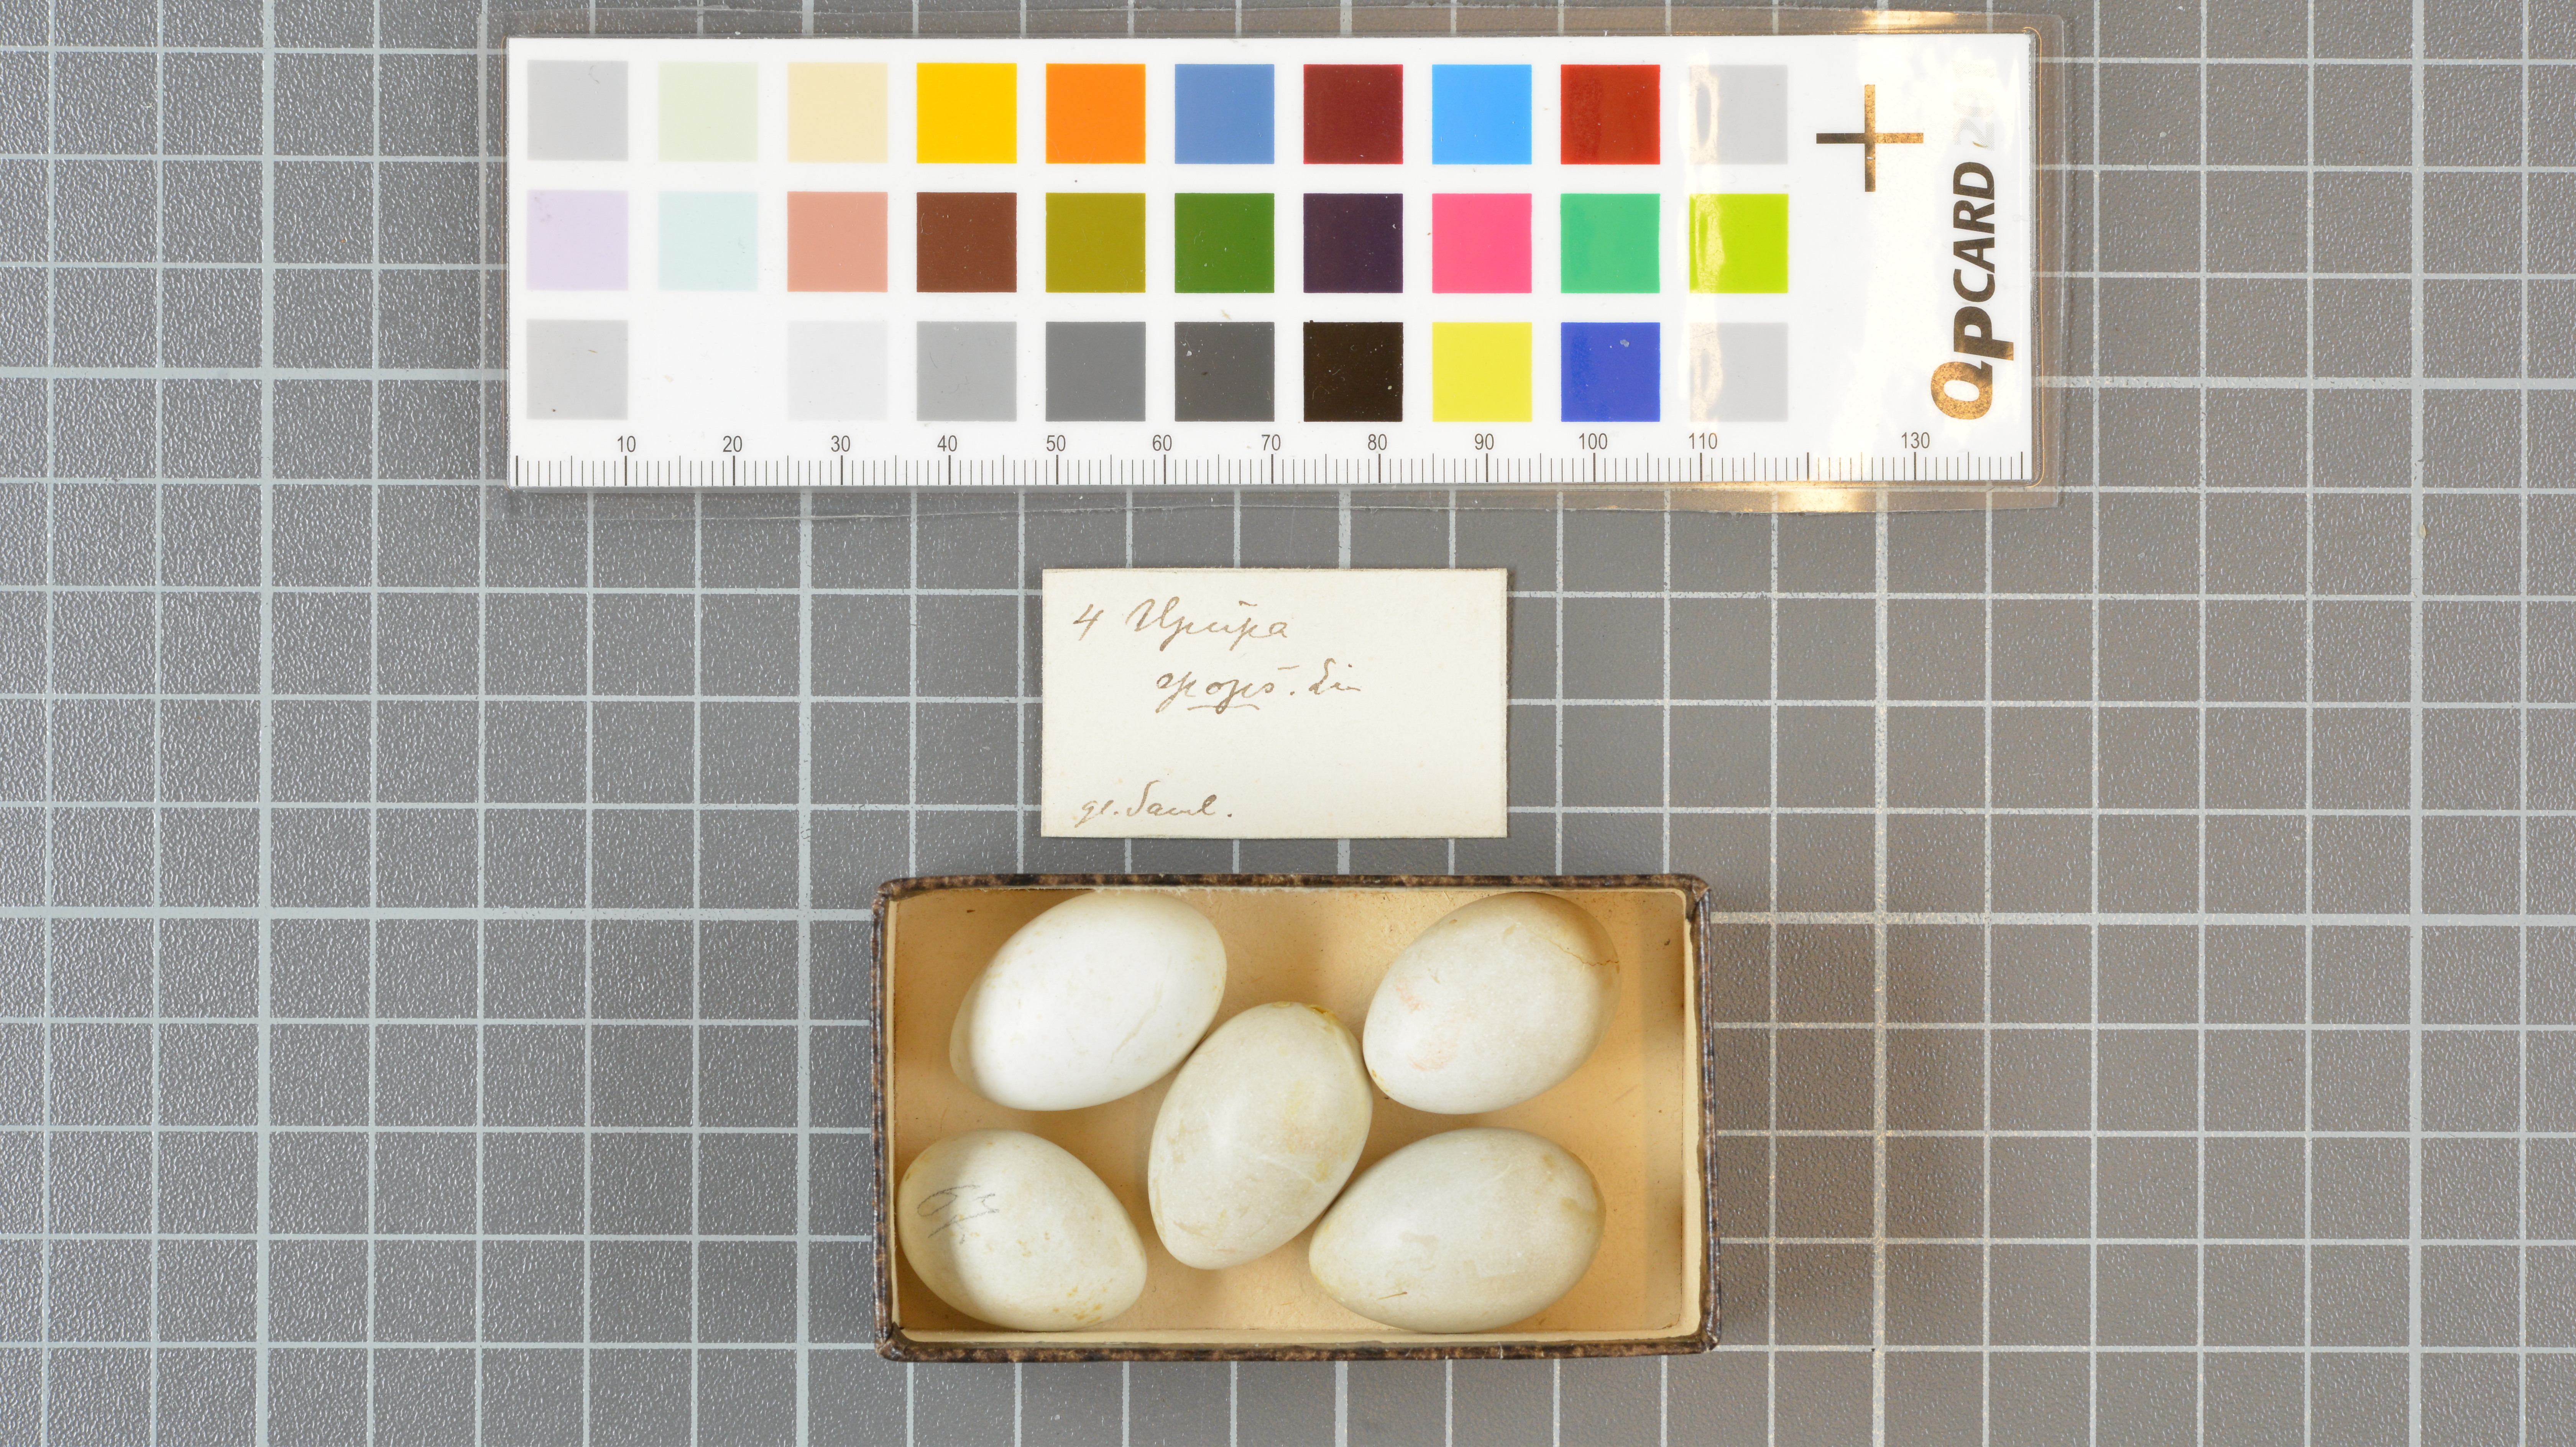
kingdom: Animalia
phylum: Chordata
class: Aves
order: Bucerotiformes
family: Upupidae
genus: Upupa
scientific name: Upupa epops
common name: Eurasian hoopoe
